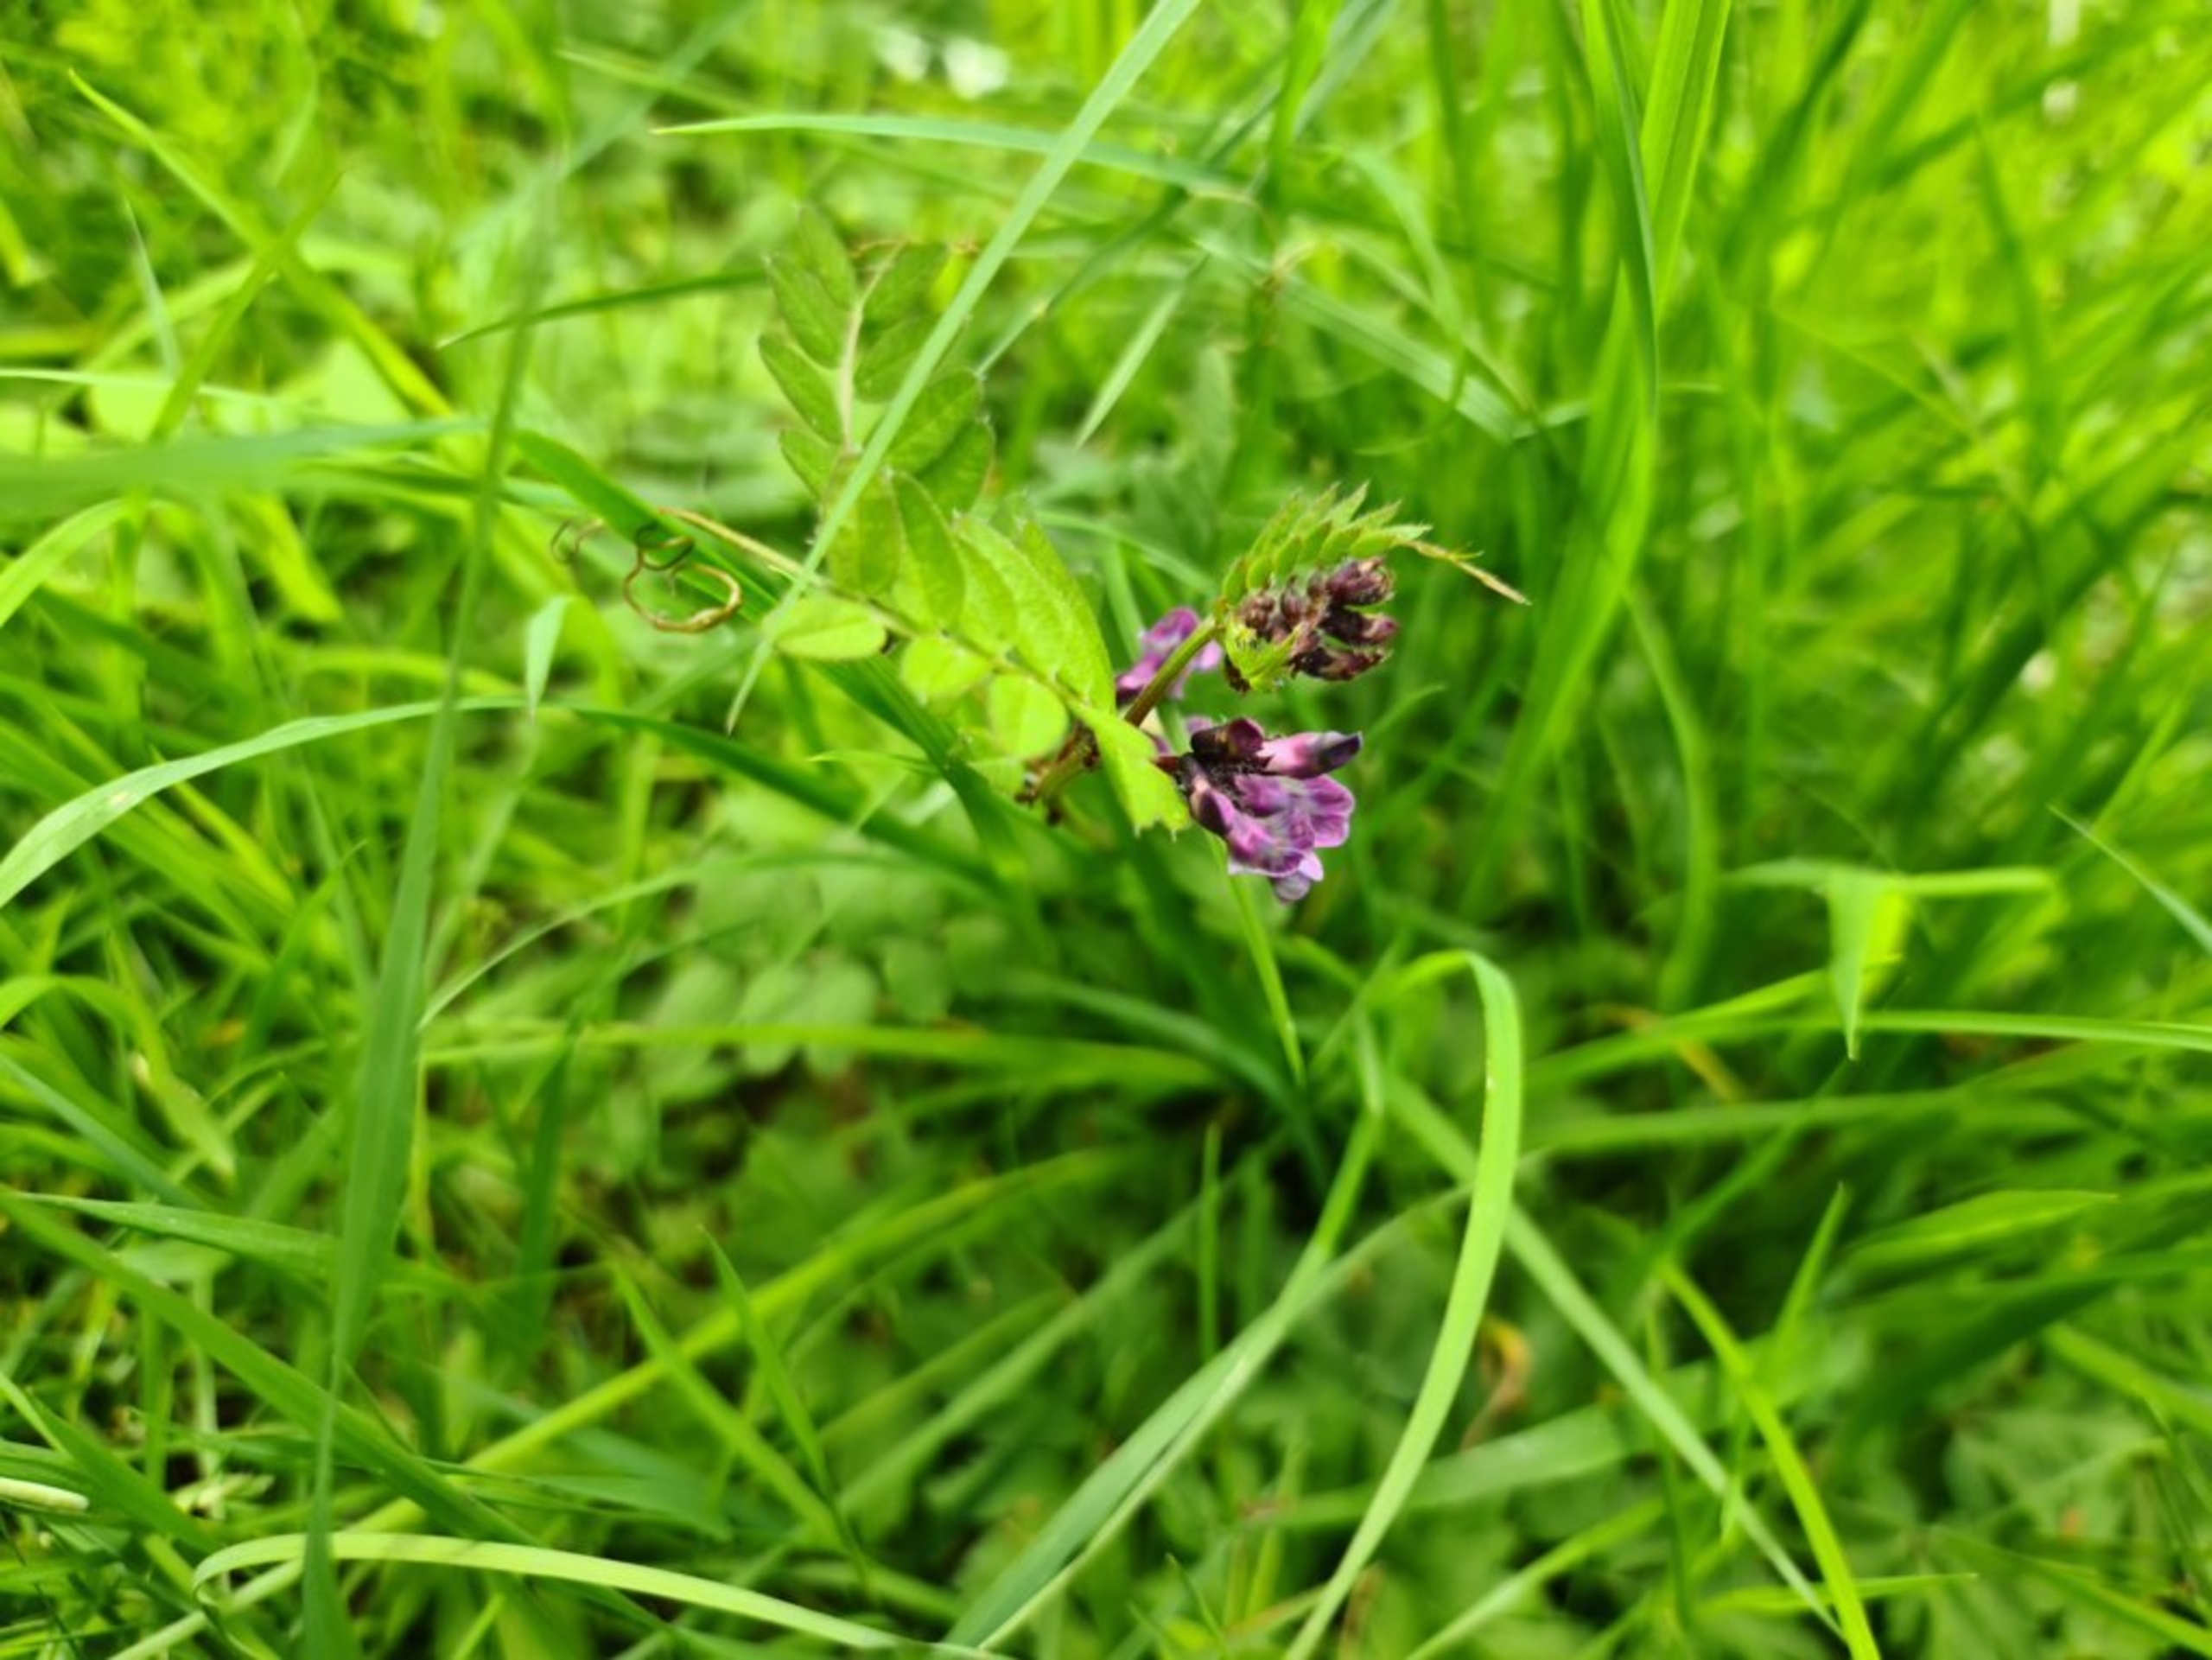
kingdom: Plantae
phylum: Tracheophyta
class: Magnoliopsida
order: Fabales
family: Fabaceae
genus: Vicia
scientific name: Vicia sepium
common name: Gærde-vikke
